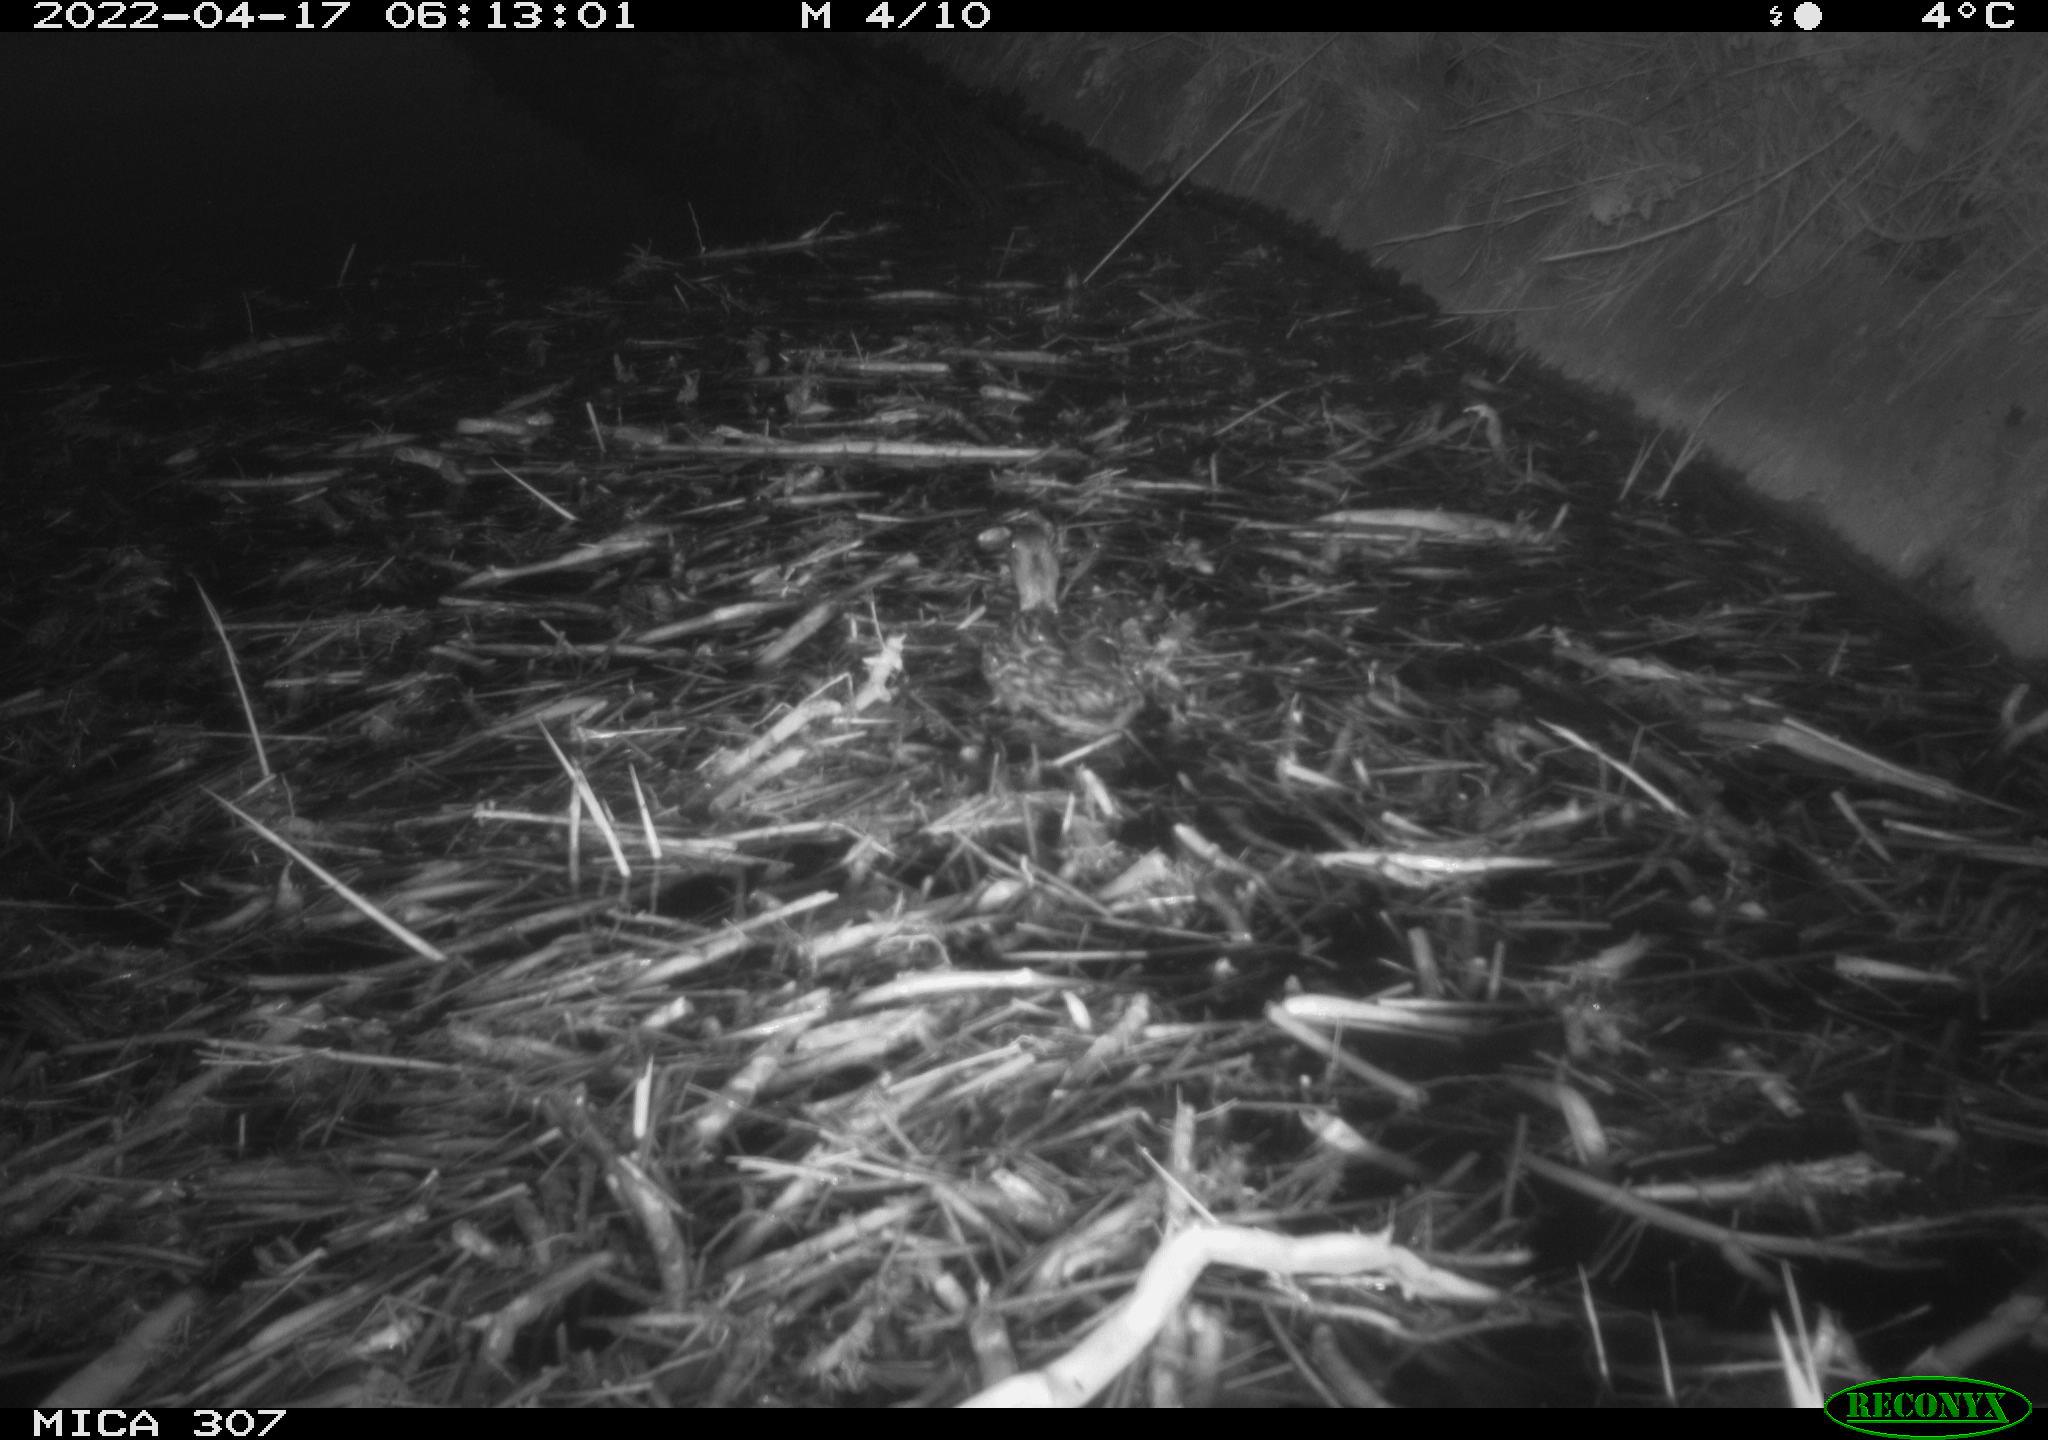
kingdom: Animalia
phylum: Chordata
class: Aves
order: Anseriformes
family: Anatidae
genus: Anas
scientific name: Anas platyrhynchos
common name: Mallard
